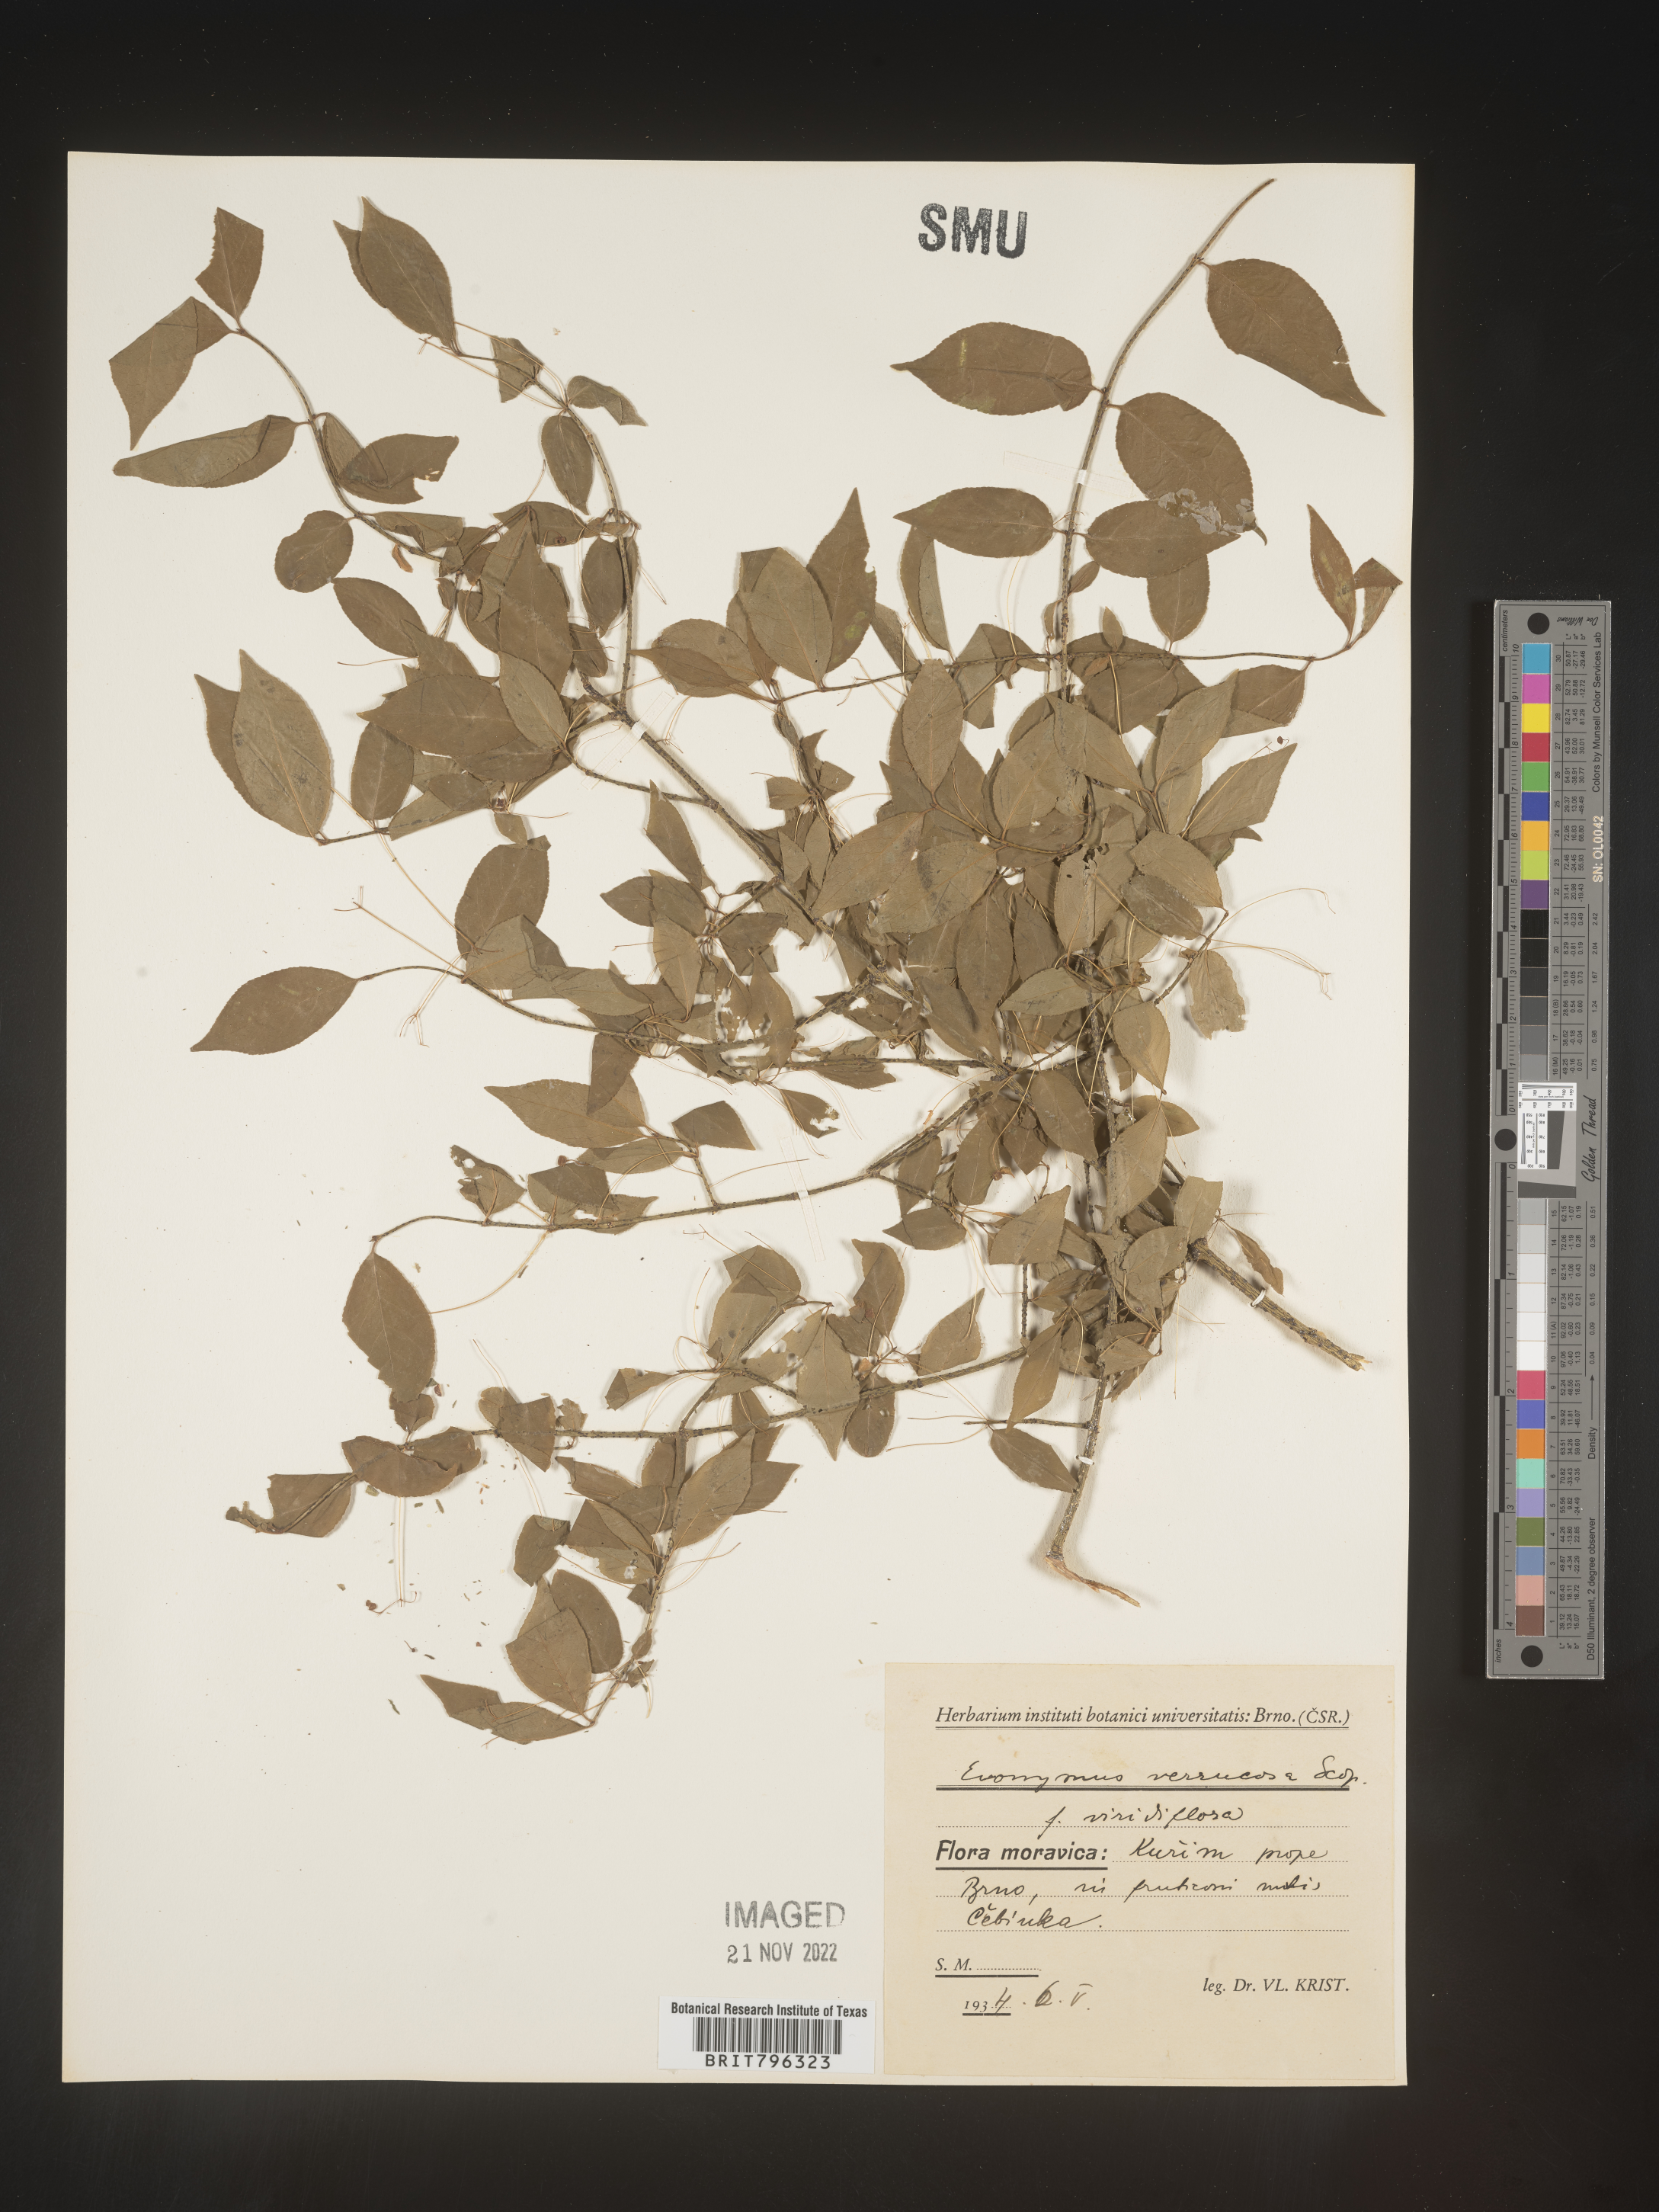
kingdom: Plantae
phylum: Tracheophyta
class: Magnoliopsida
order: Celastrales
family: Celastraceae
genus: Euonymus
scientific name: Euonymus
